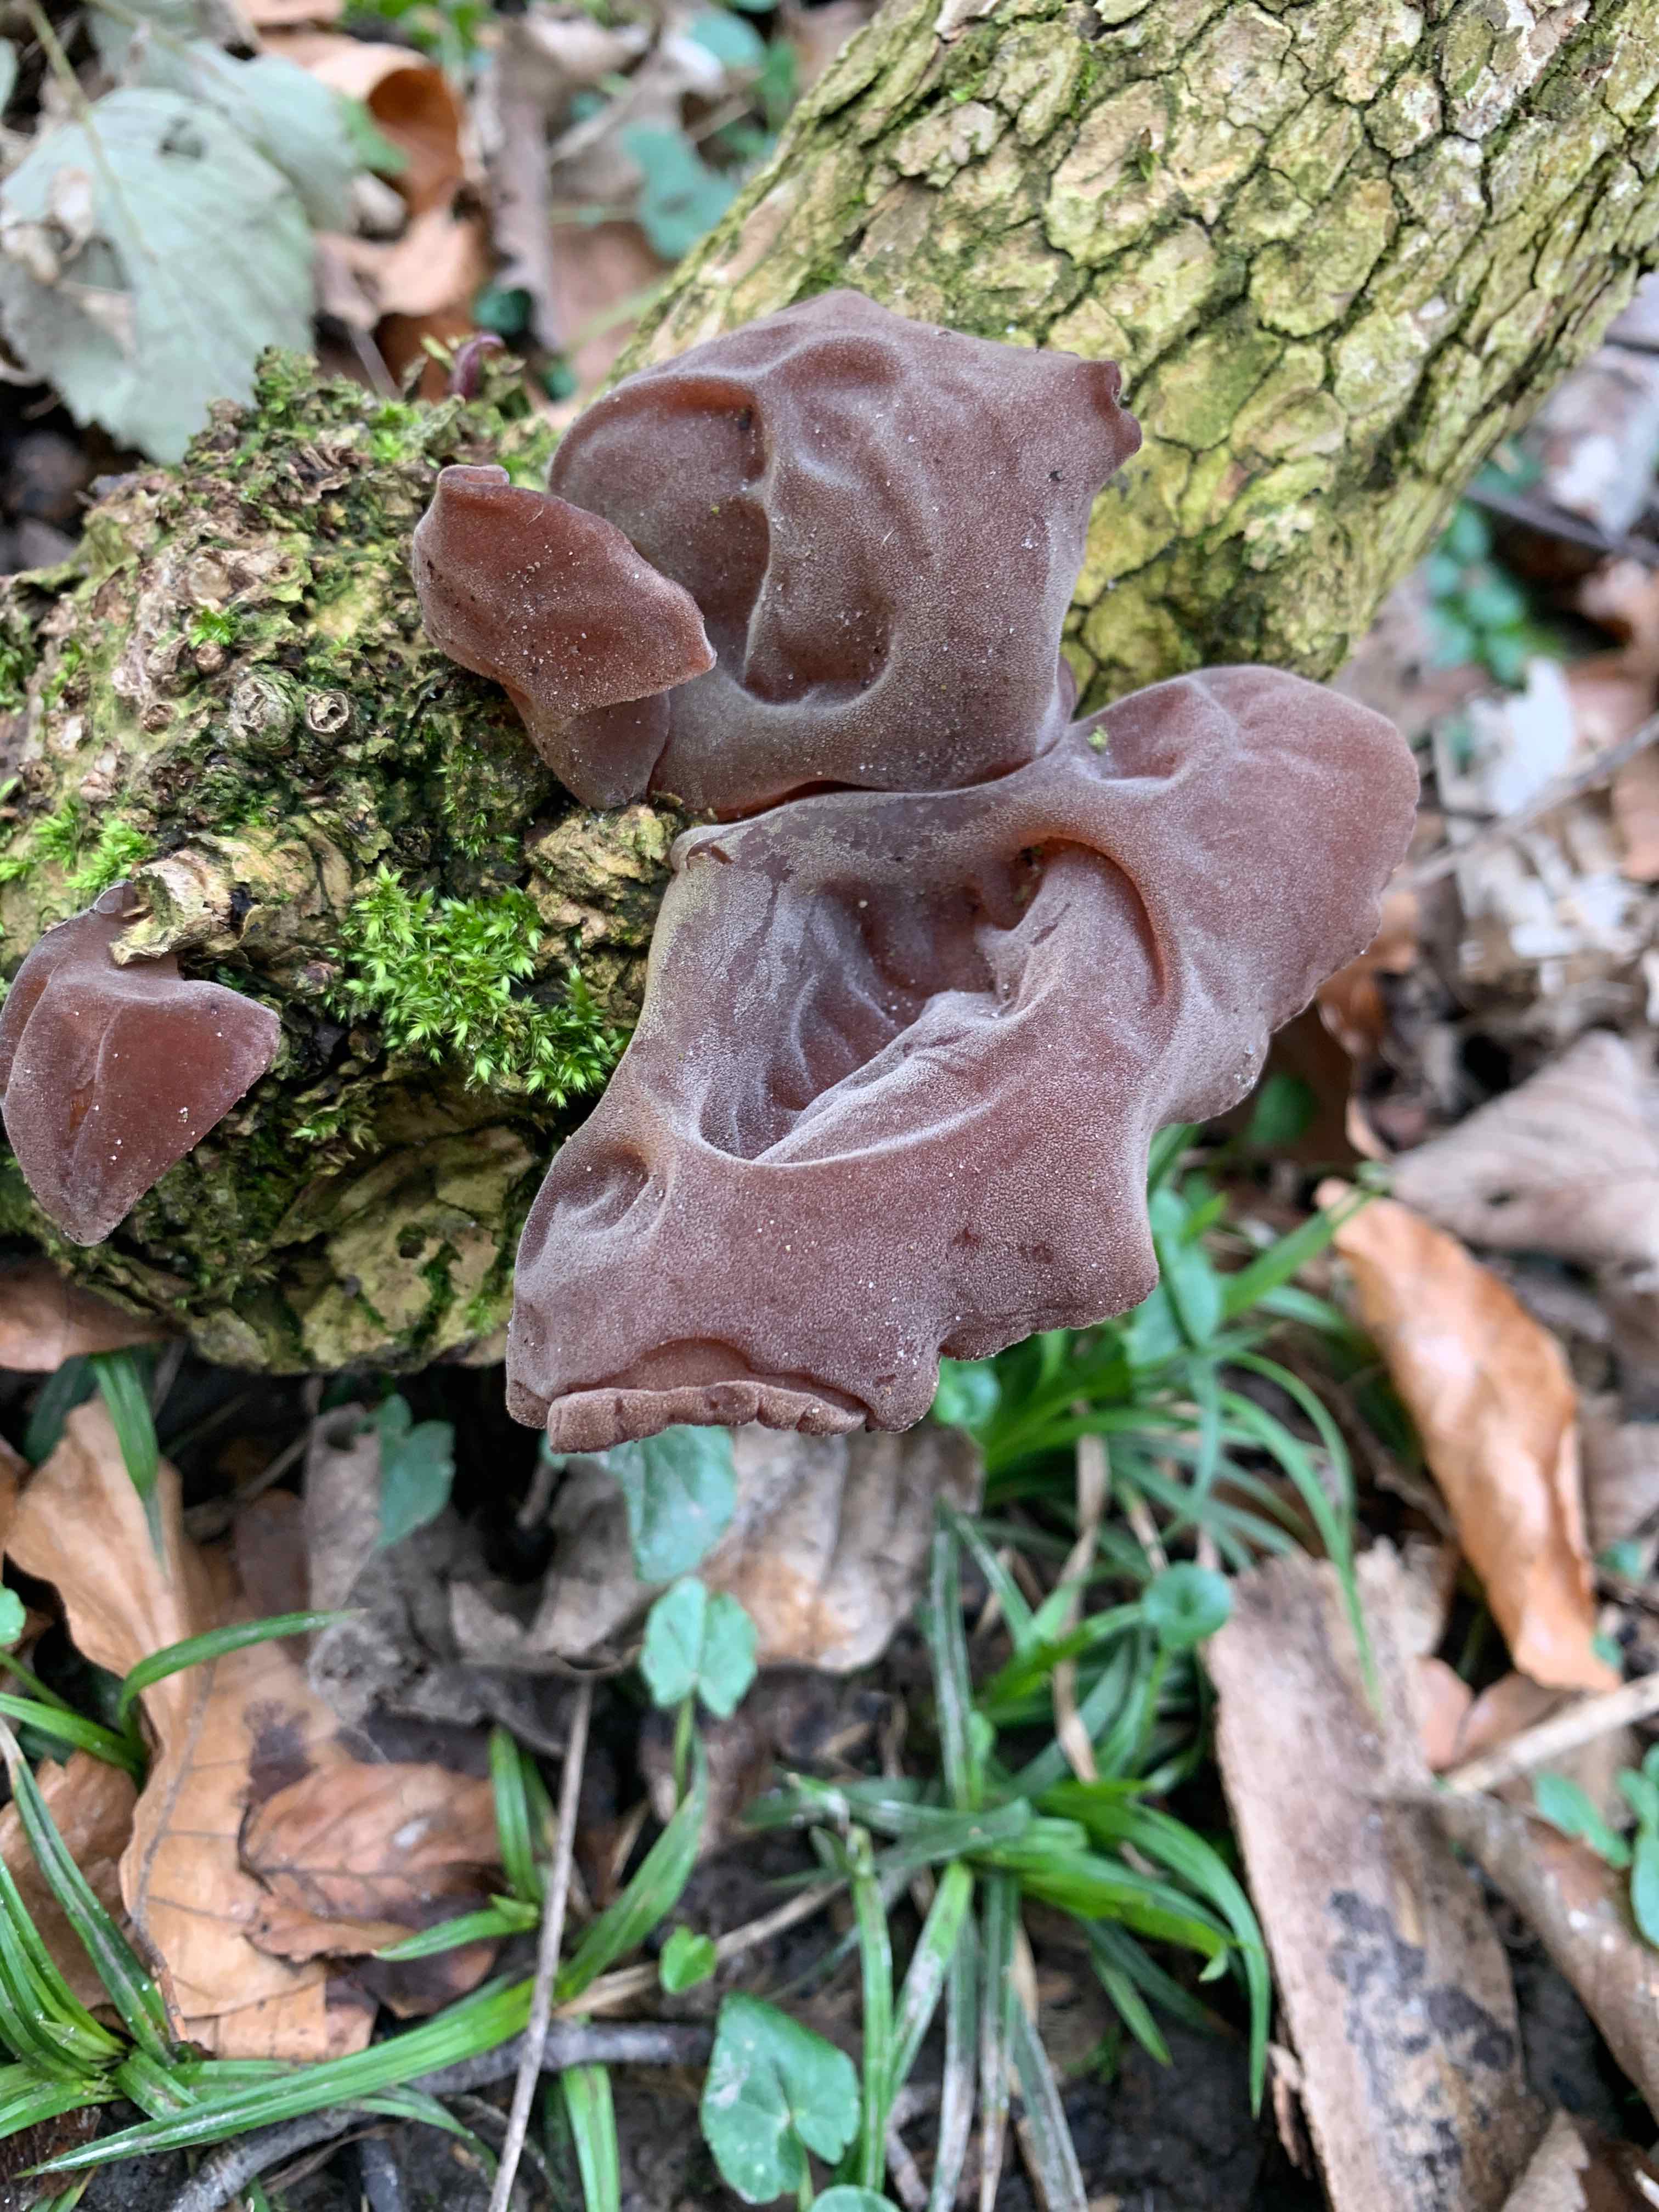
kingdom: Fungi
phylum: Basidiomycota
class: Agaricomycetes
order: Auriculariales
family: Auriculariaceae
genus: Auricularia
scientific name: Auricularia auricula-judae
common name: almindelig judasøre
